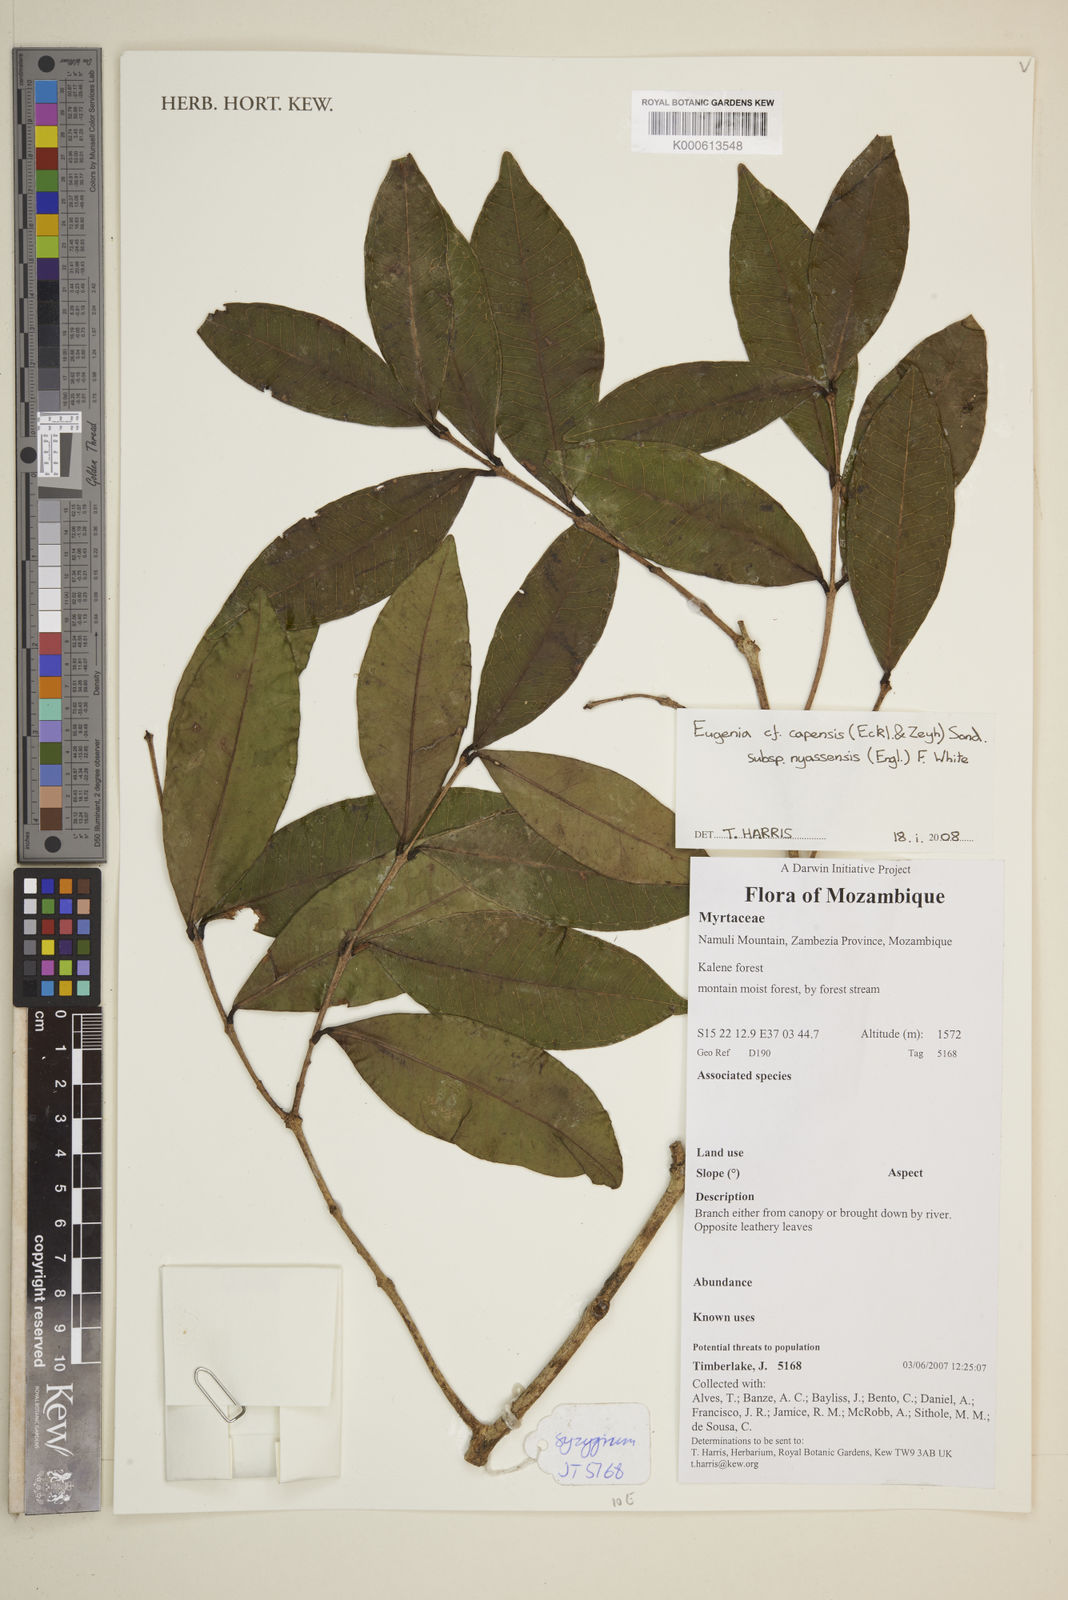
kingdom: Plantae
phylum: Tracheophyta
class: Magnoliopsida
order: Myrtales
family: Myrtaceae
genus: Eugenia
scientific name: Eugenia capensis
